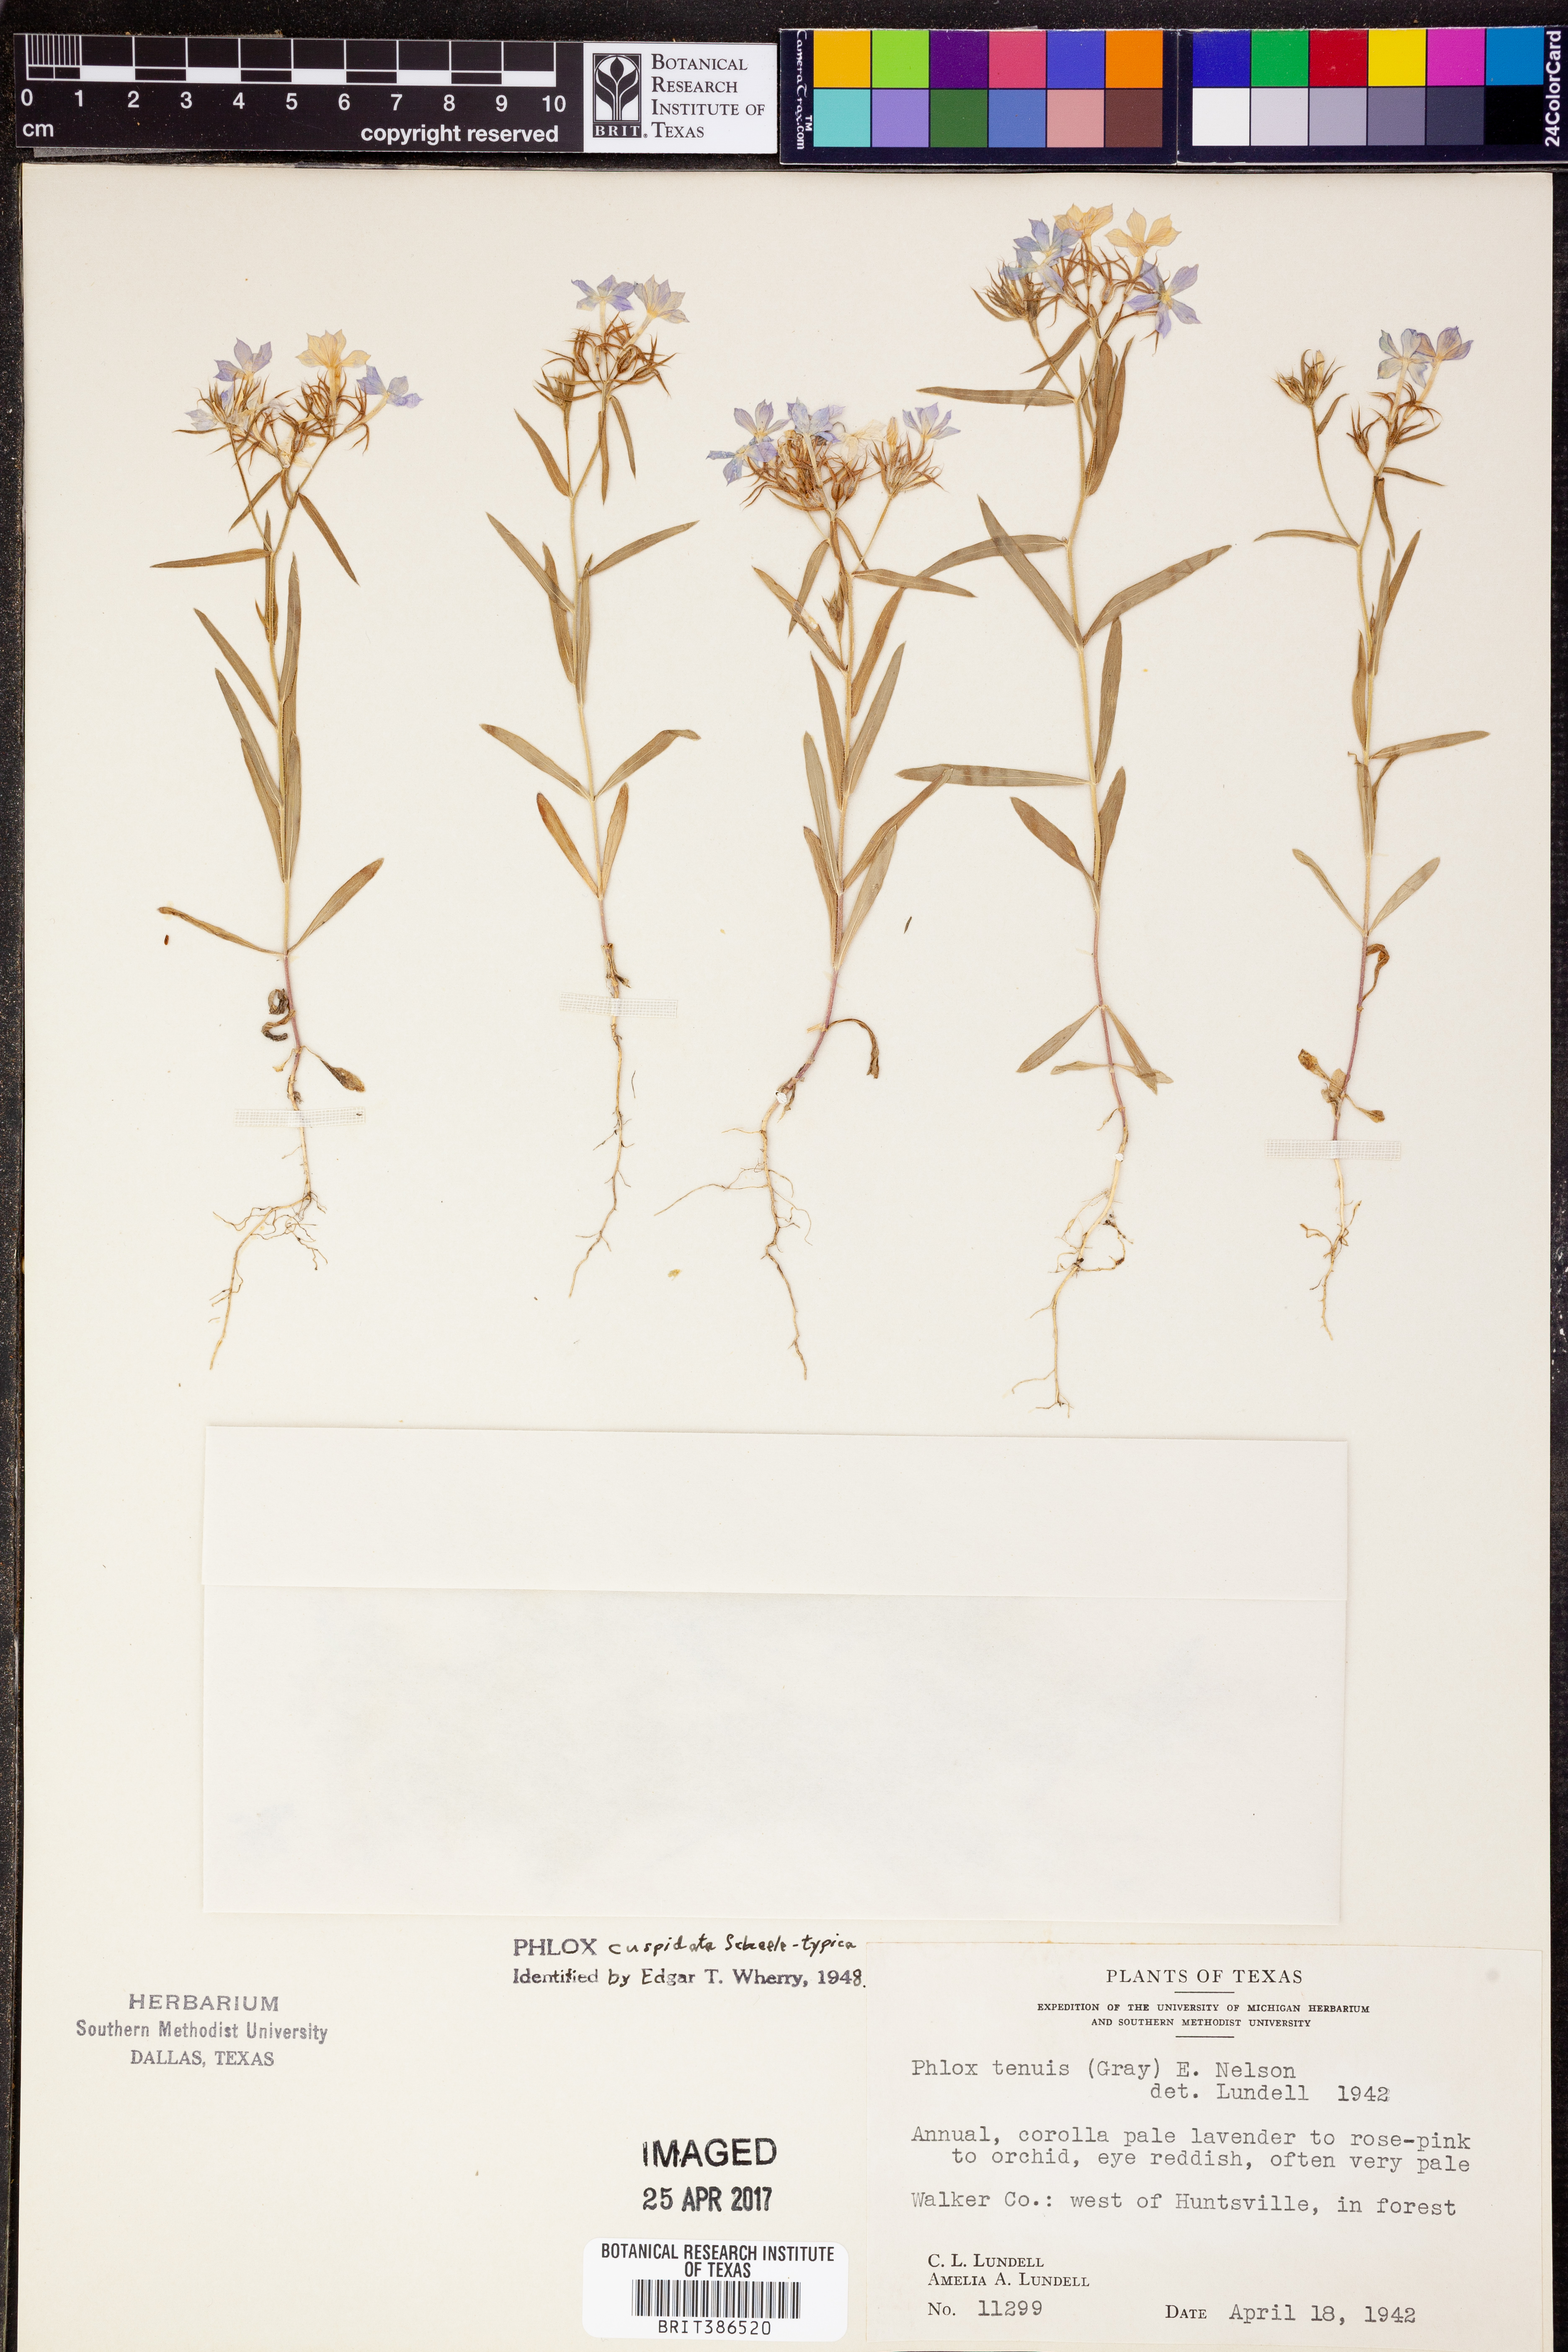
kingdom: Plantae
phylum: Tracheophyta
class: Magnoliopsida
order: Ericales
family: Polemoniaceae
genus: Phlox
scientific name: Phlox cuspidata
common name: Pointed phlox
